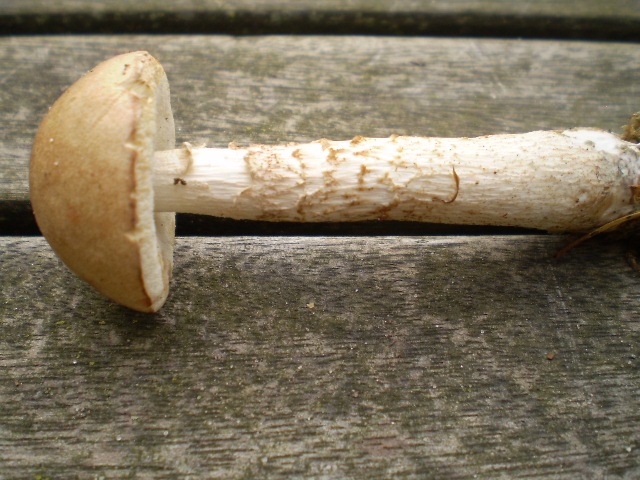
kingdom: Fungi
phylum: Basidiomycota
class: Agaricomycetes
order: Boletales
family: Boletaceae
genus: Leccinum
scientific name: Leccinum cyaneobasileucum
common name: almindelig skælrørhat
